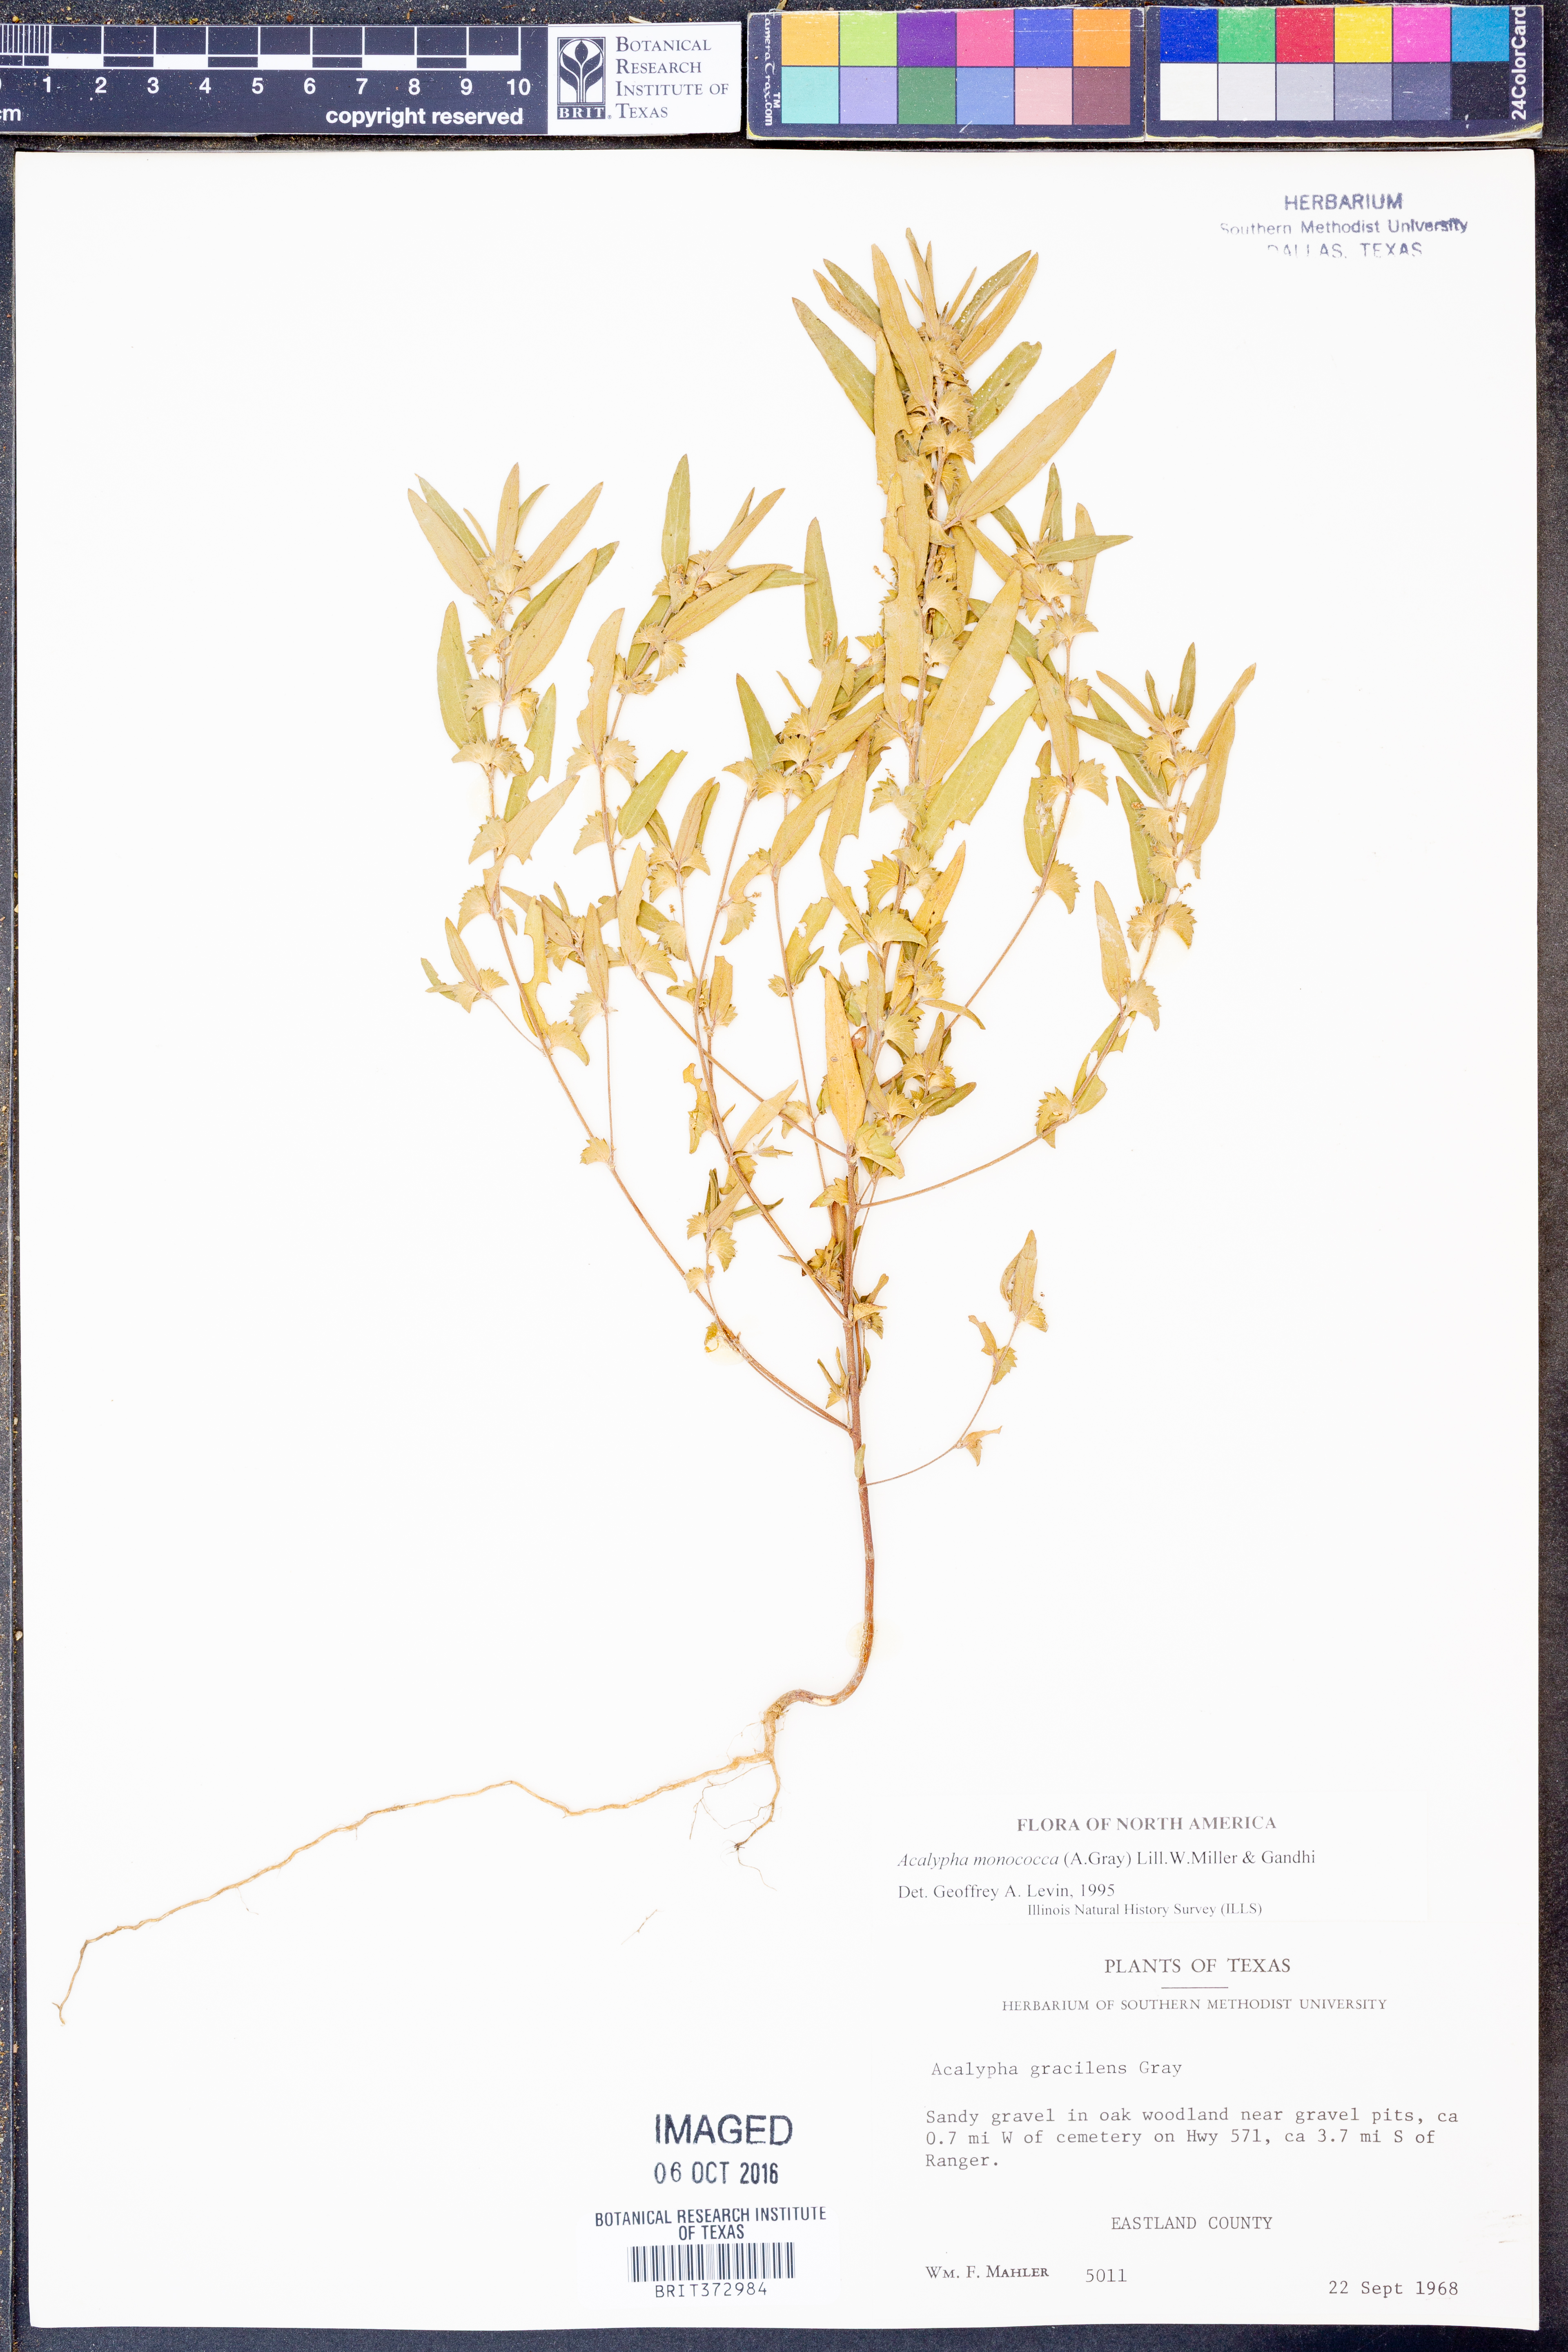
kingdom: Plantae
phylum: Tracheophyta
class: Magnoliopsida
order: Malpighiales
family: Euphorbiaceae
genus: Acalypha
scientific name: Acalypha monococca
